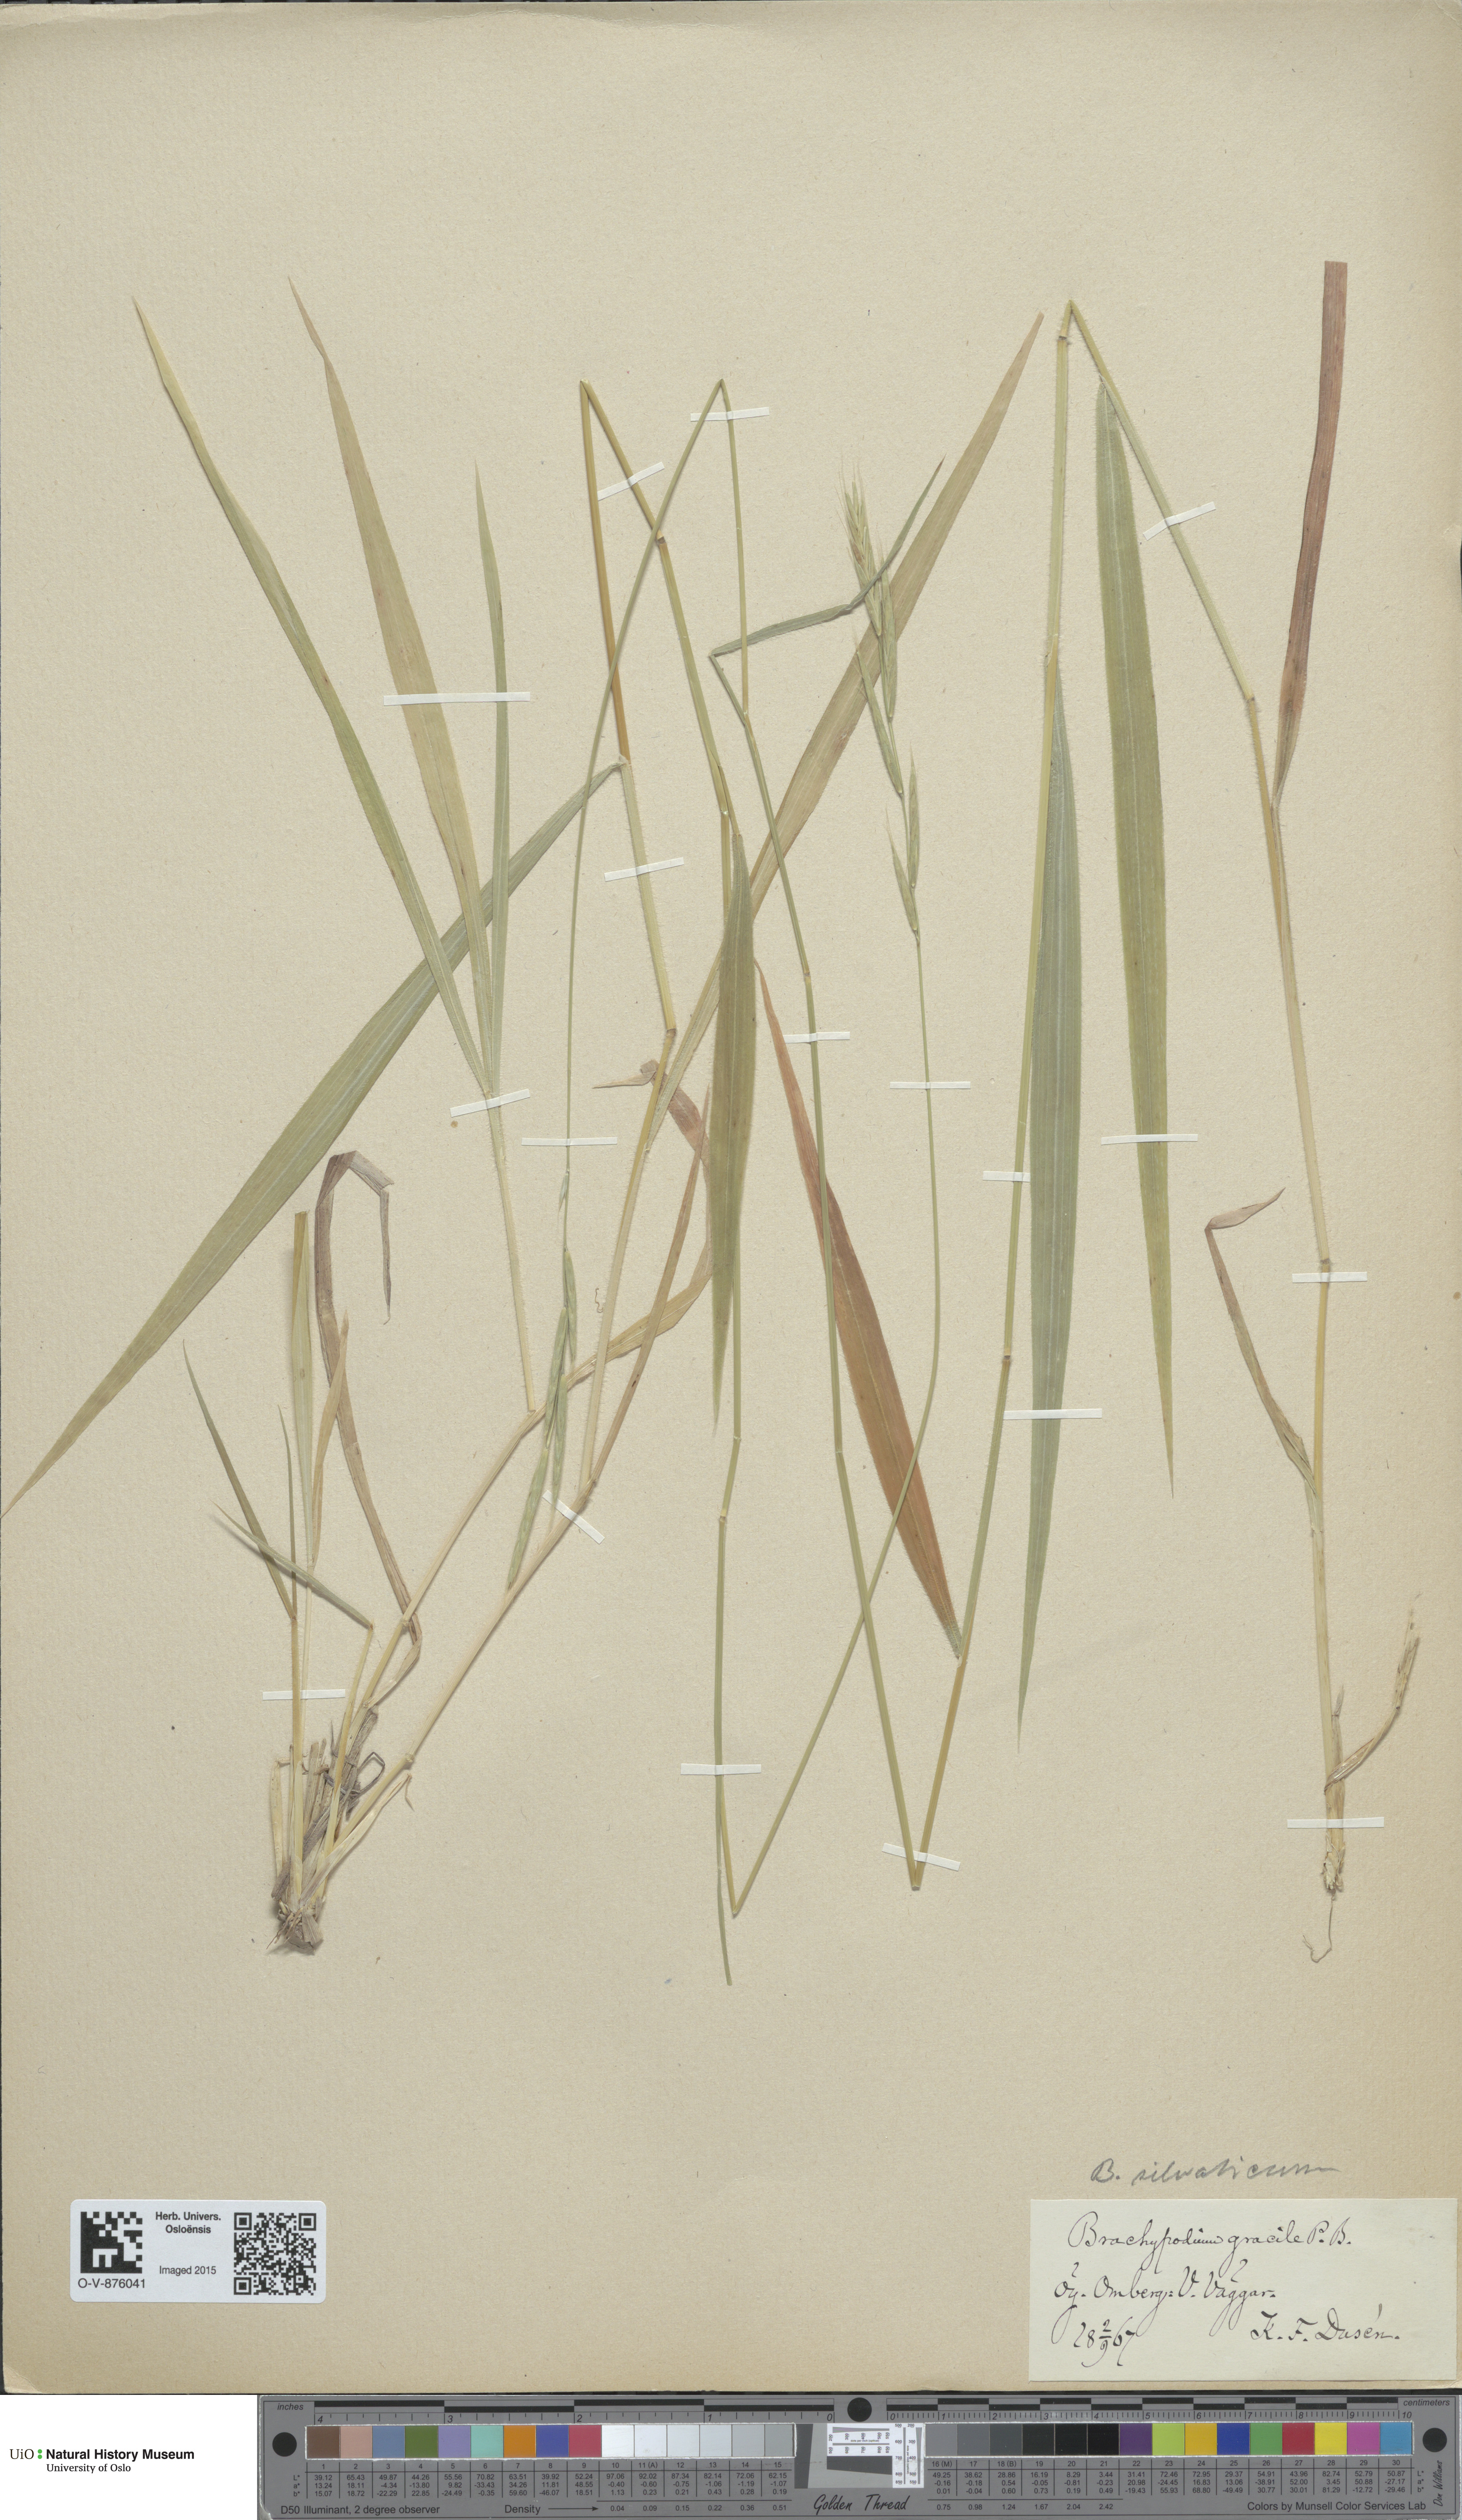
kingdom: Plantae
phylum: Tracheophyta
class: Liliopsida
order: Poales
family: Poaceae
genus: Brachypodium
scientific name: Brachypodium sylvaticum
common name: False-brome
